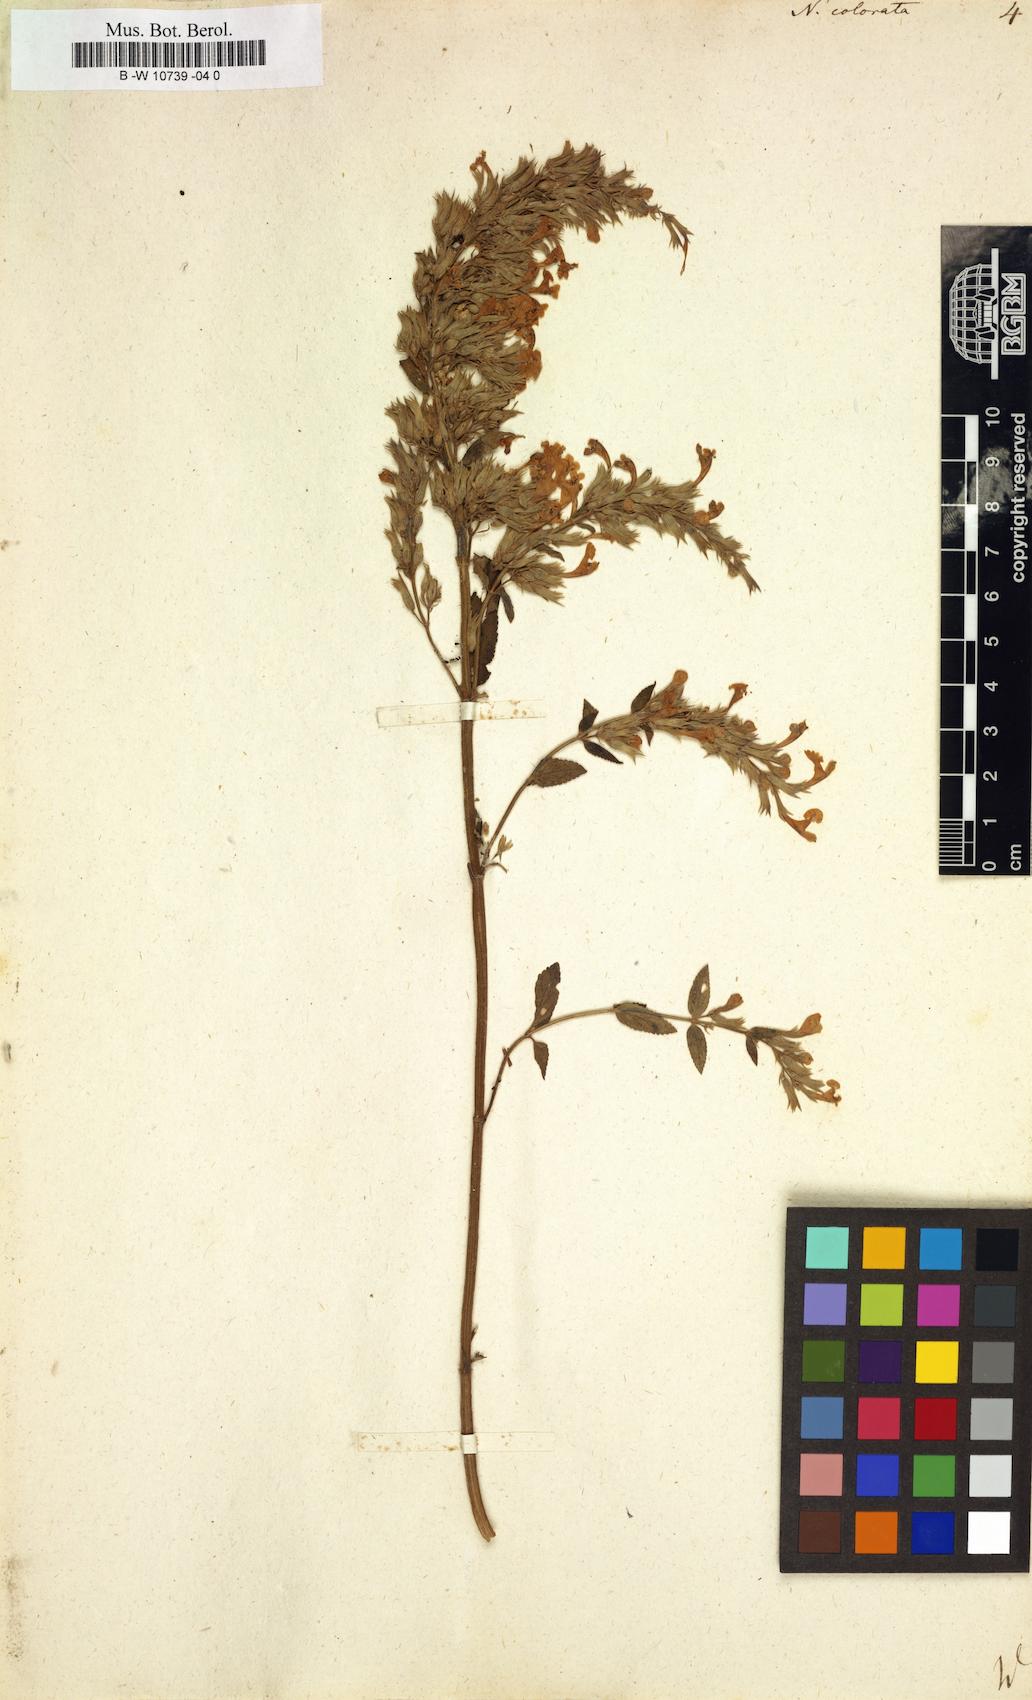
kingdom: Plantae
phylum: Tracheophyta
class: Magnoliopsida
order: Lamiales
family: Lamiaceae
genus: Nepeta
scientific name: Nepeta grandiflora
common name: Caucasus catmint
